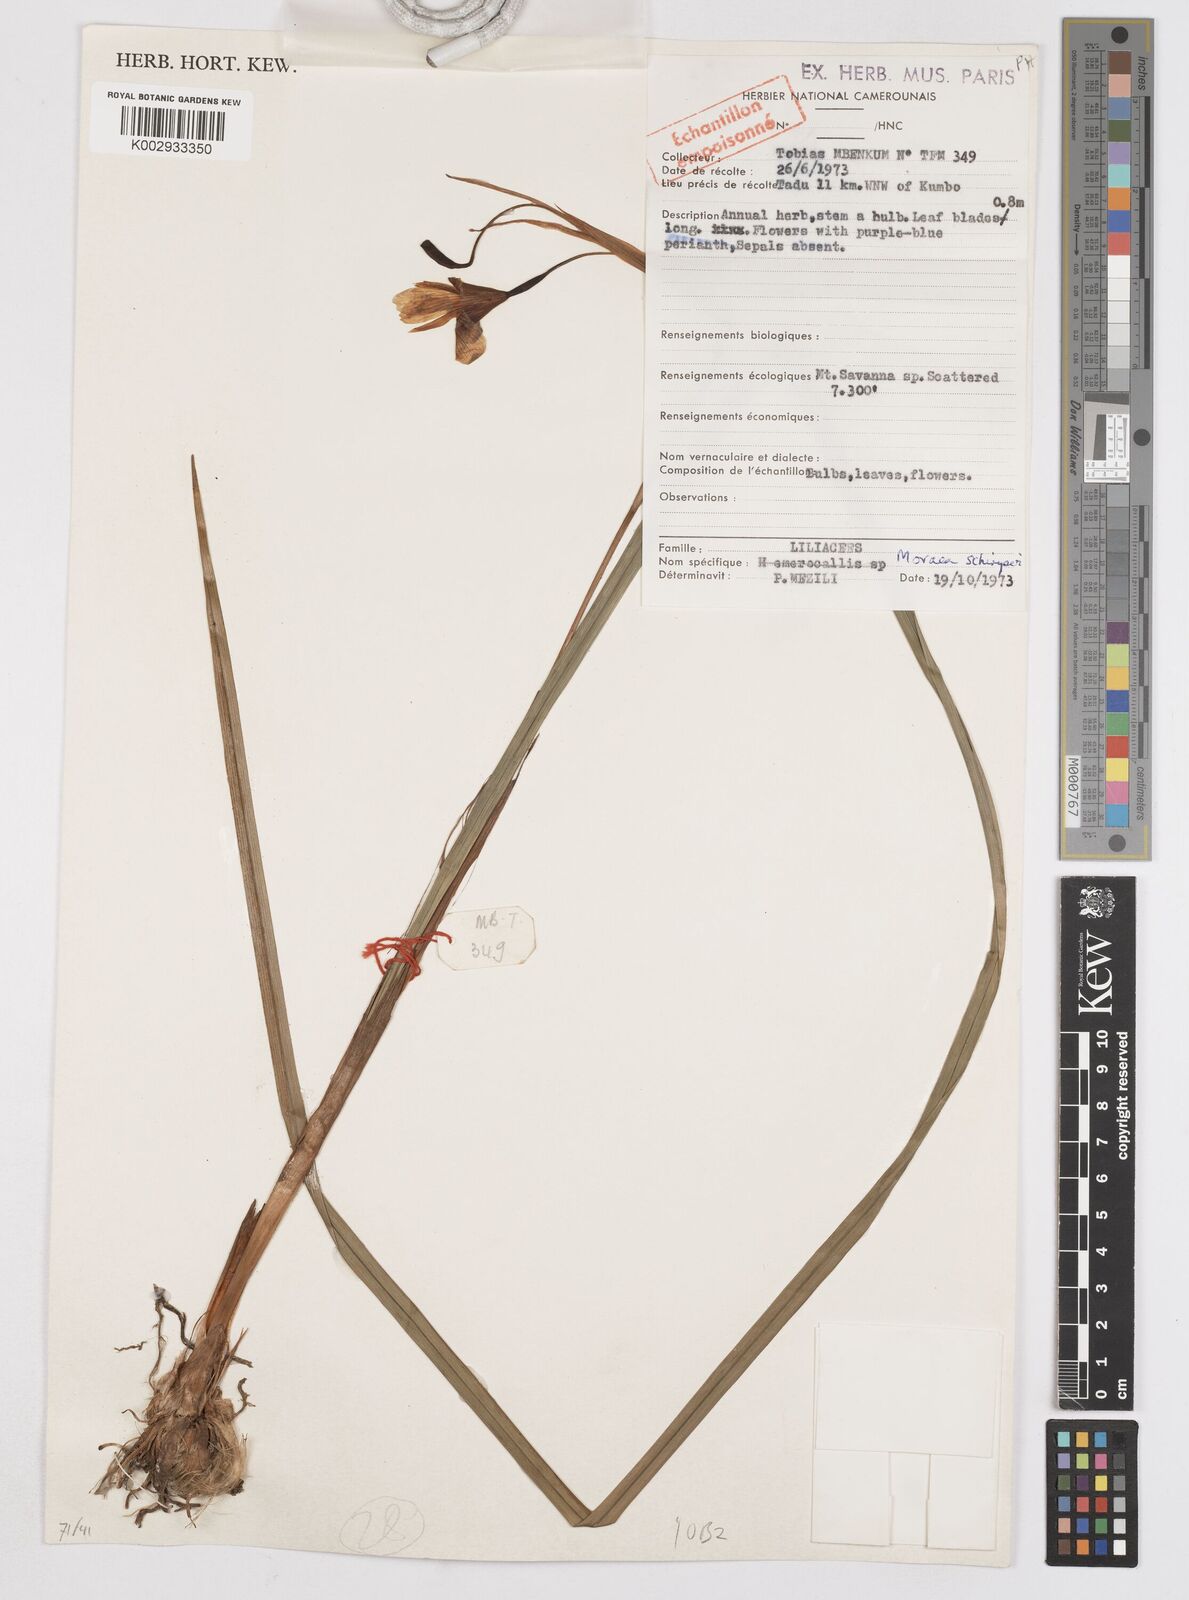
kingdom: Plantae
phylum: Tracheophyta
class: Liliopsida
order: Asparagales
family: Iridaceae
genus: Moraea
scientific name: Moraea schimperi
